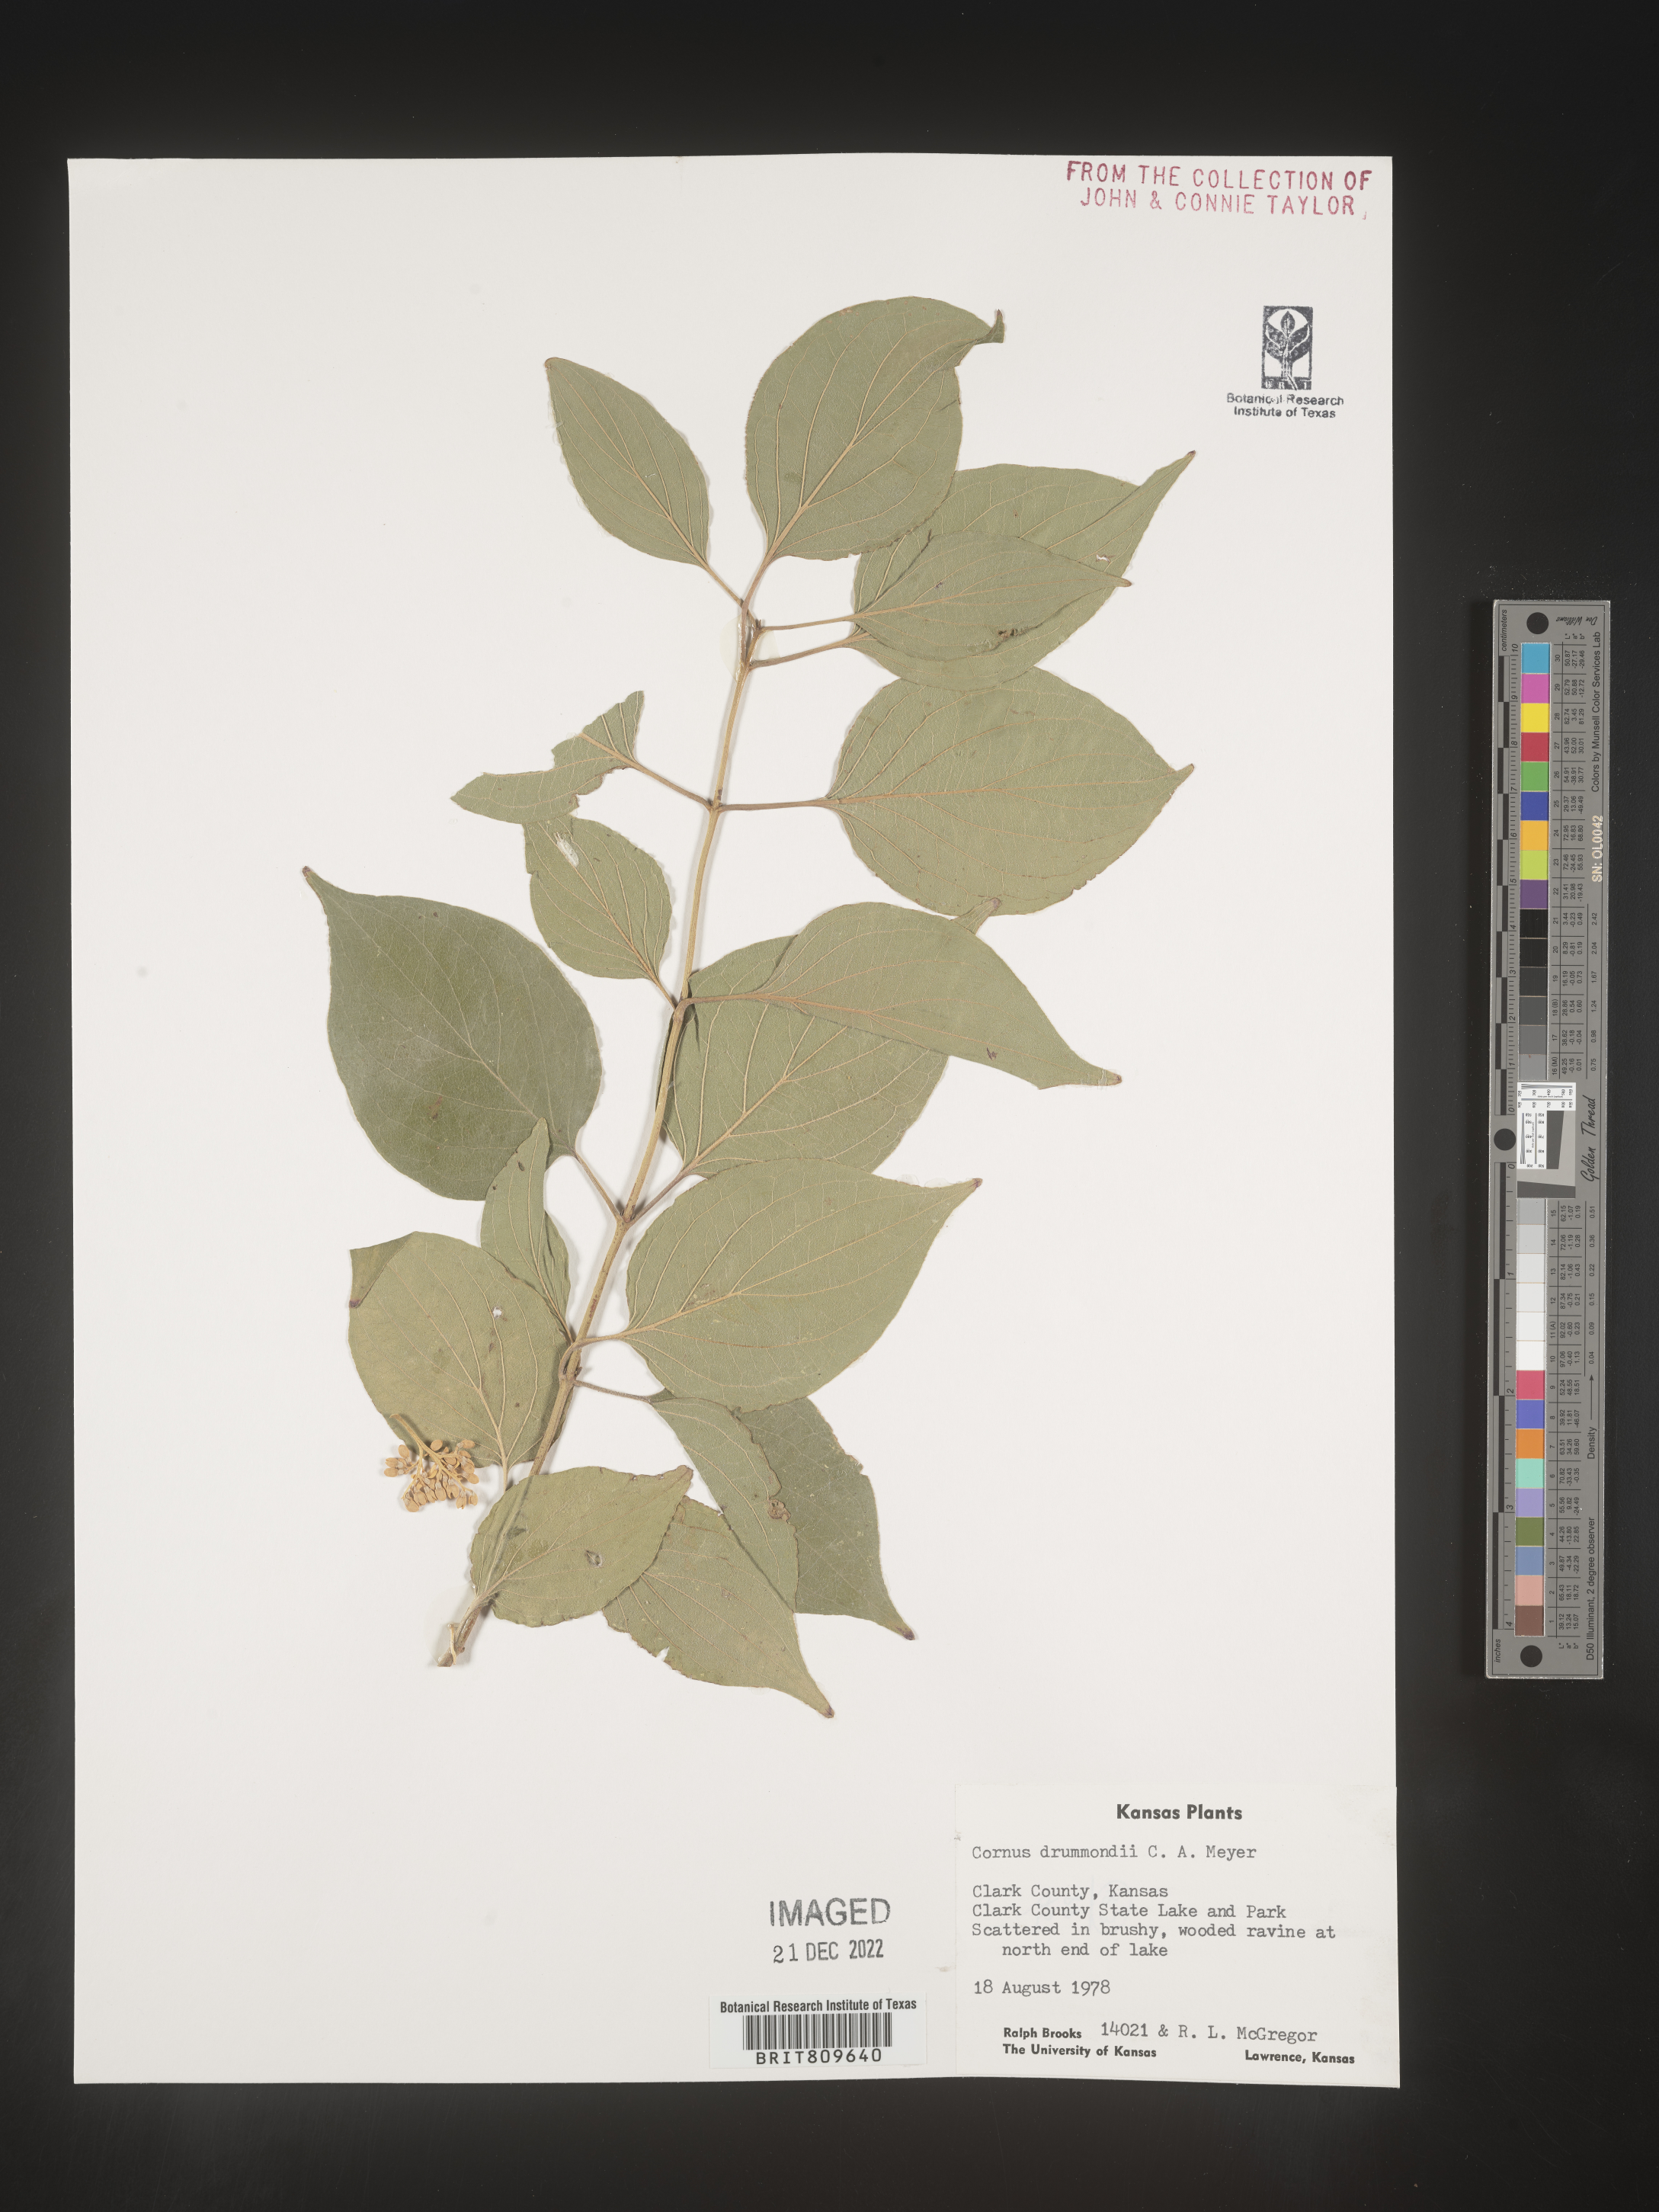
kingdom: Plantae
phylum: Tracheophyta
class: Magnoliopsida
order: Cornales
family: Cornaceae
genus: Cornus
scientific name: Cornus drummondii
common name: Rough-leaf dogwood
